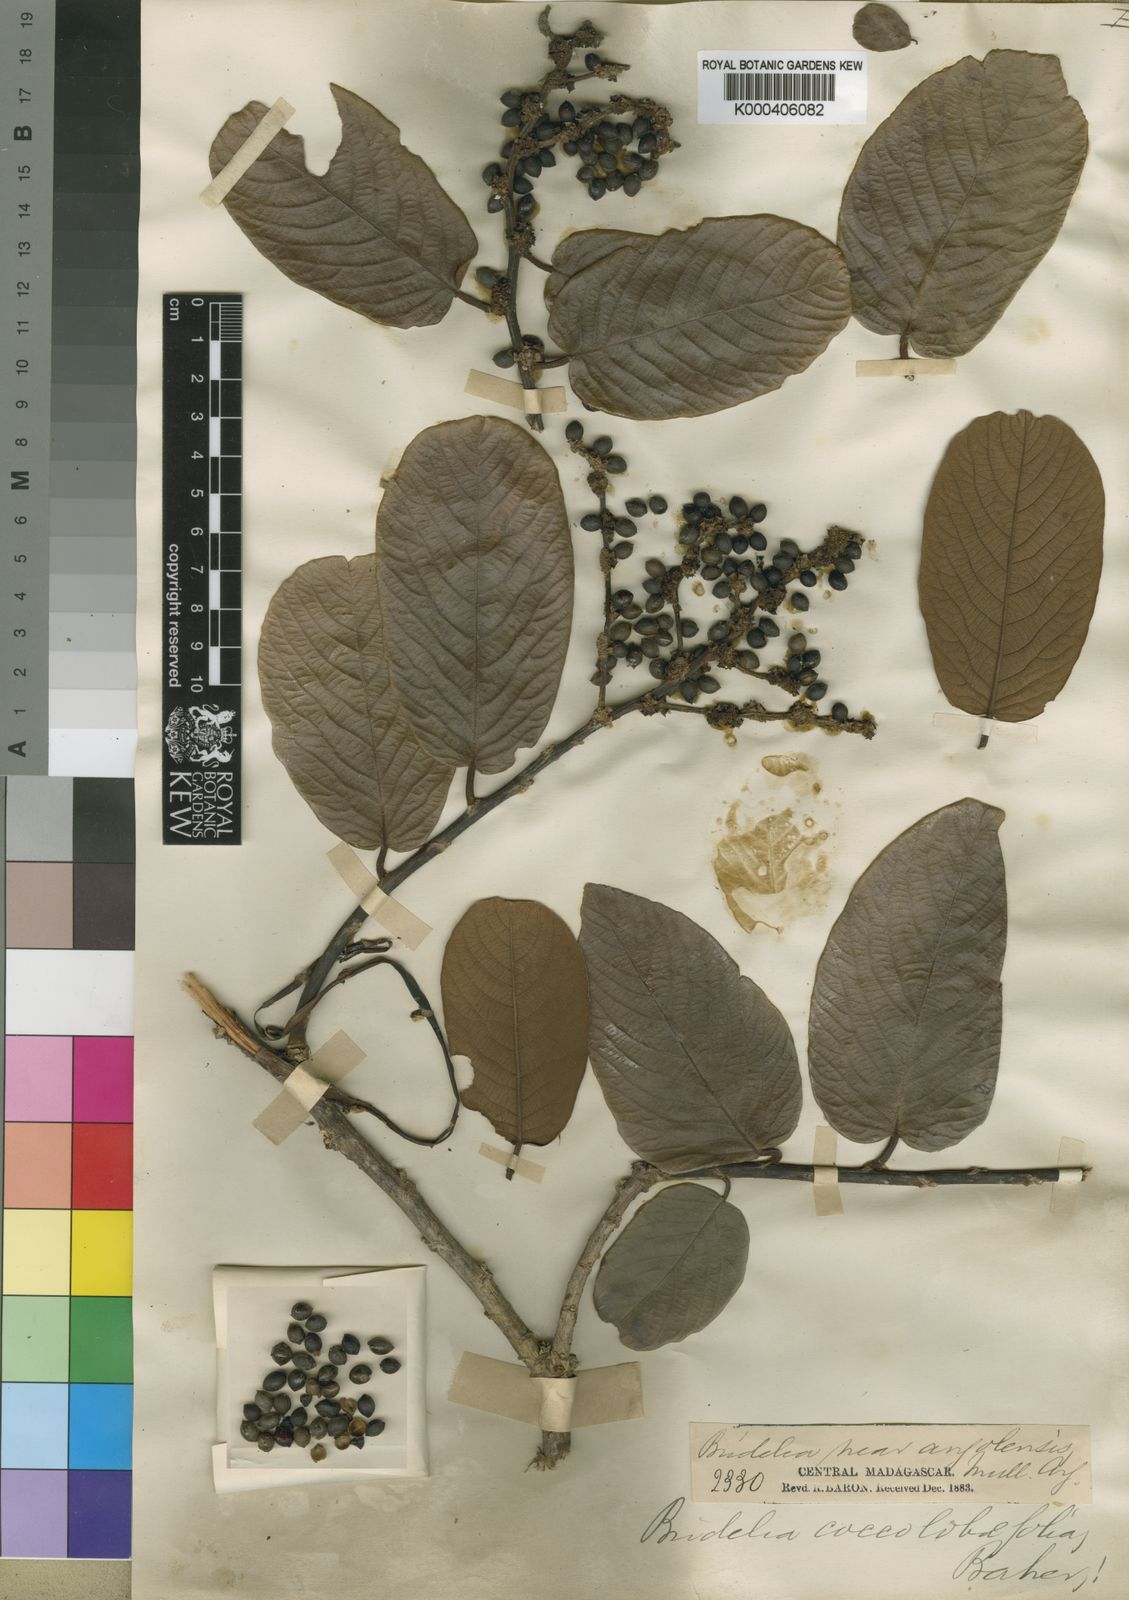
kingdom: Plantae
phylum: Tracheophyta
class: Magnoliopsida
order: Malpighiales
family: Phyllanthaceae
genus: Bridelia
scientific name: Bridelia tulasneana
